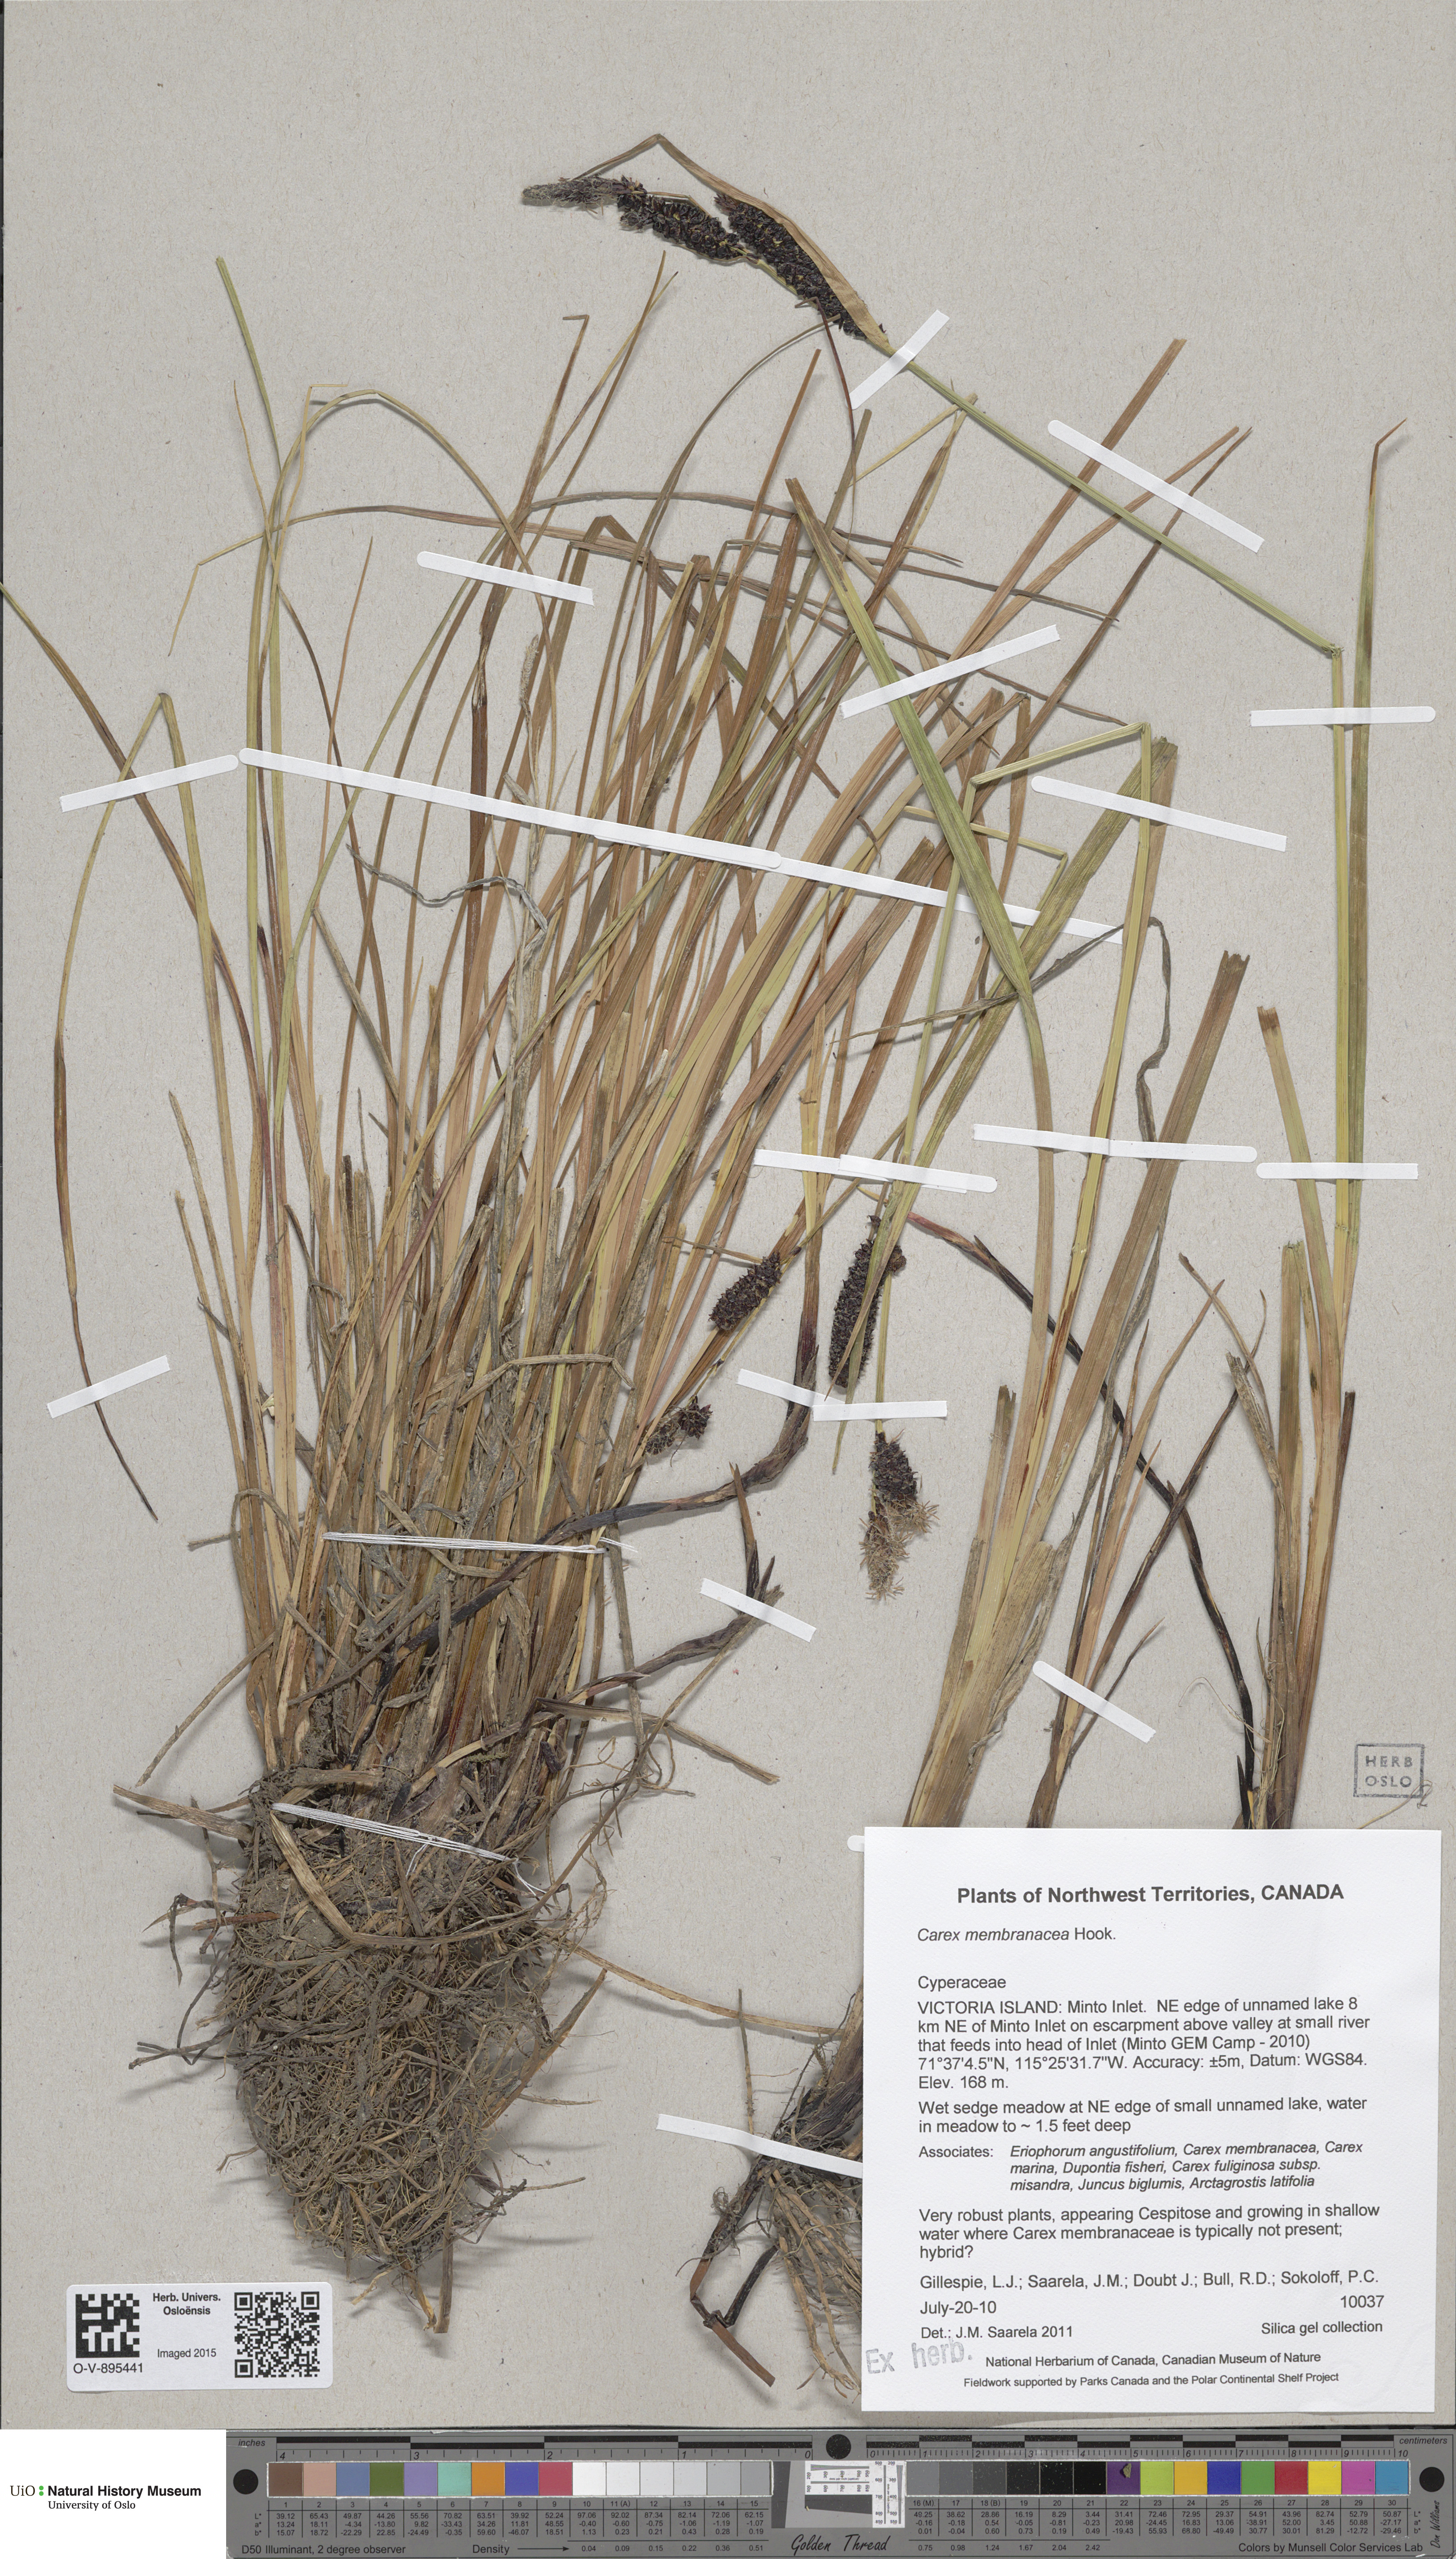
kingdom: Plantae
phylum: Tracheophyta
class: Liliopsida
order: Poales
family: Cyperaceae
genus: Carex
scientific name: Carex membranacea
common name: Fragile sedge
